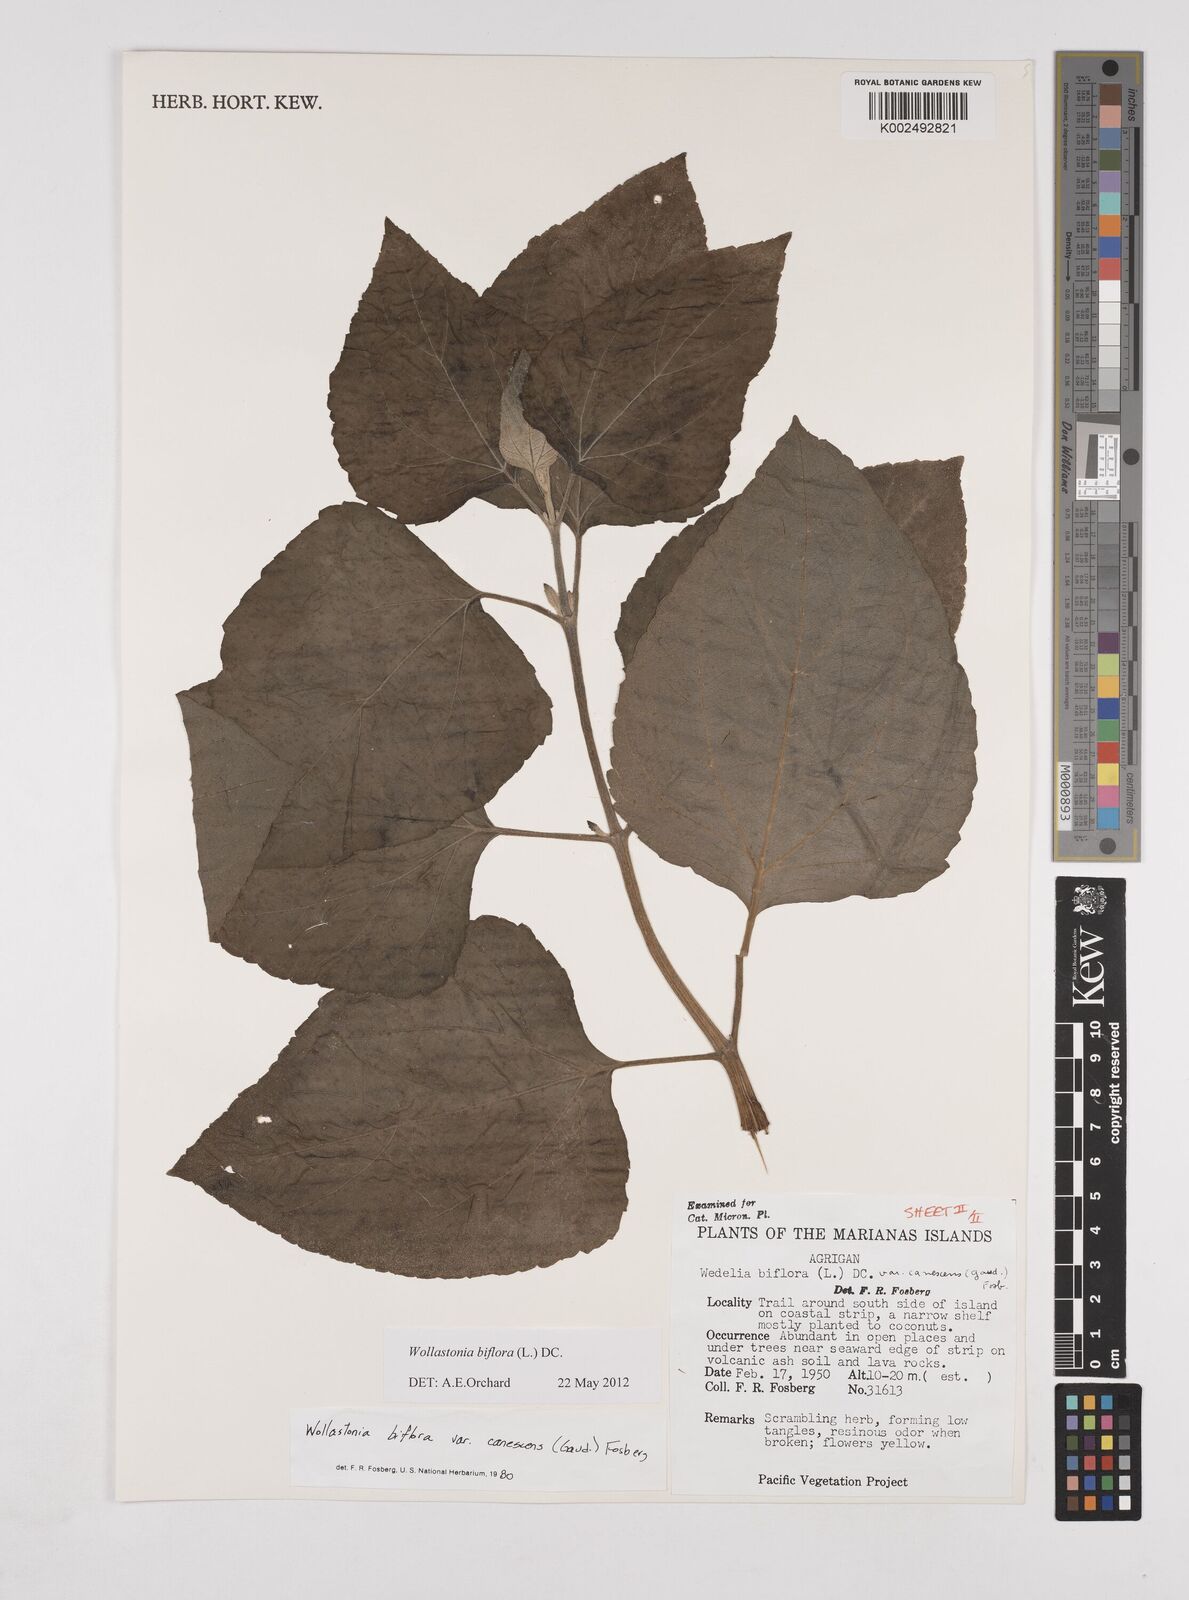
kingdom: Plantae
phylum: Tracheophyta
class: Magnoliopsida
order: Asterales
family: Asteraceae
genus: Wollastonia
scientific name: Wollastonia biflora
